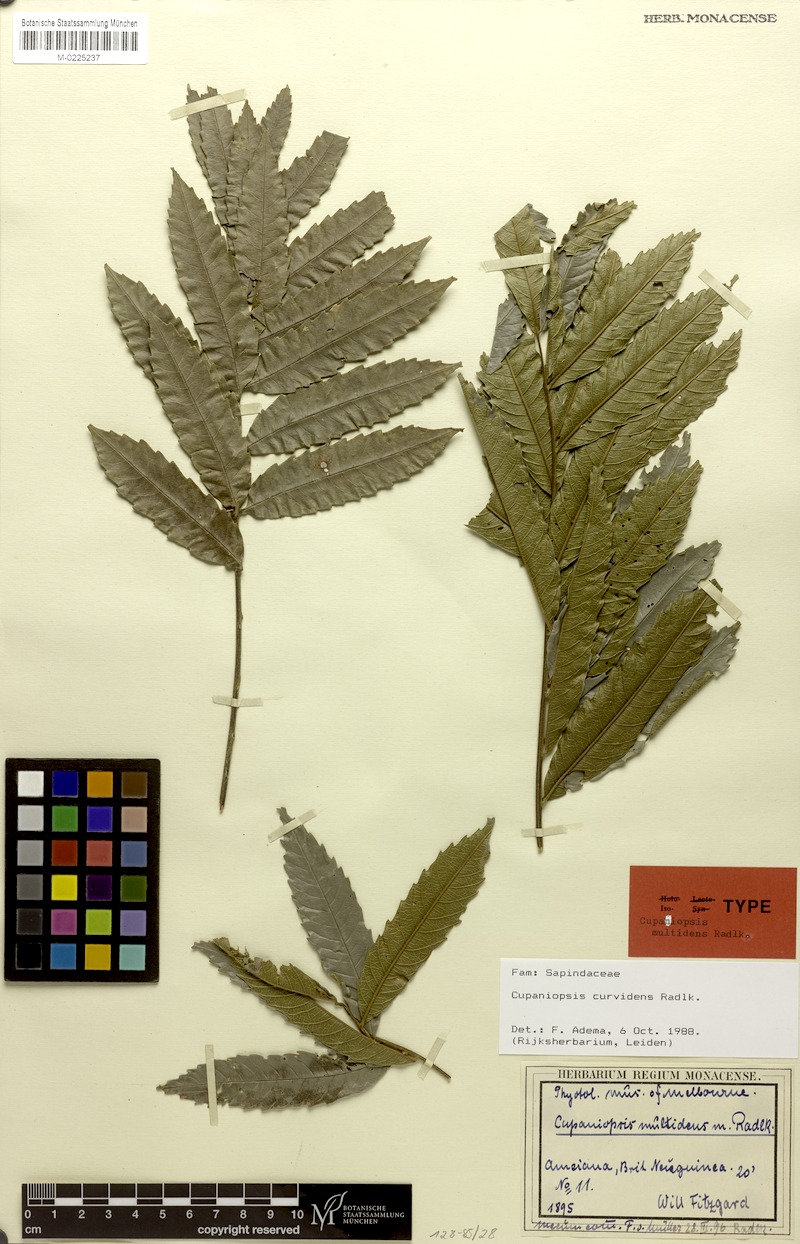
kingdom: Plantae
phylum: Tracheophyta
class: Magnoliopsida
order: Sapindales
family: Sapindaceae
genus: Cupaniopsis
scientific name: Cupaniopsis curvidens
